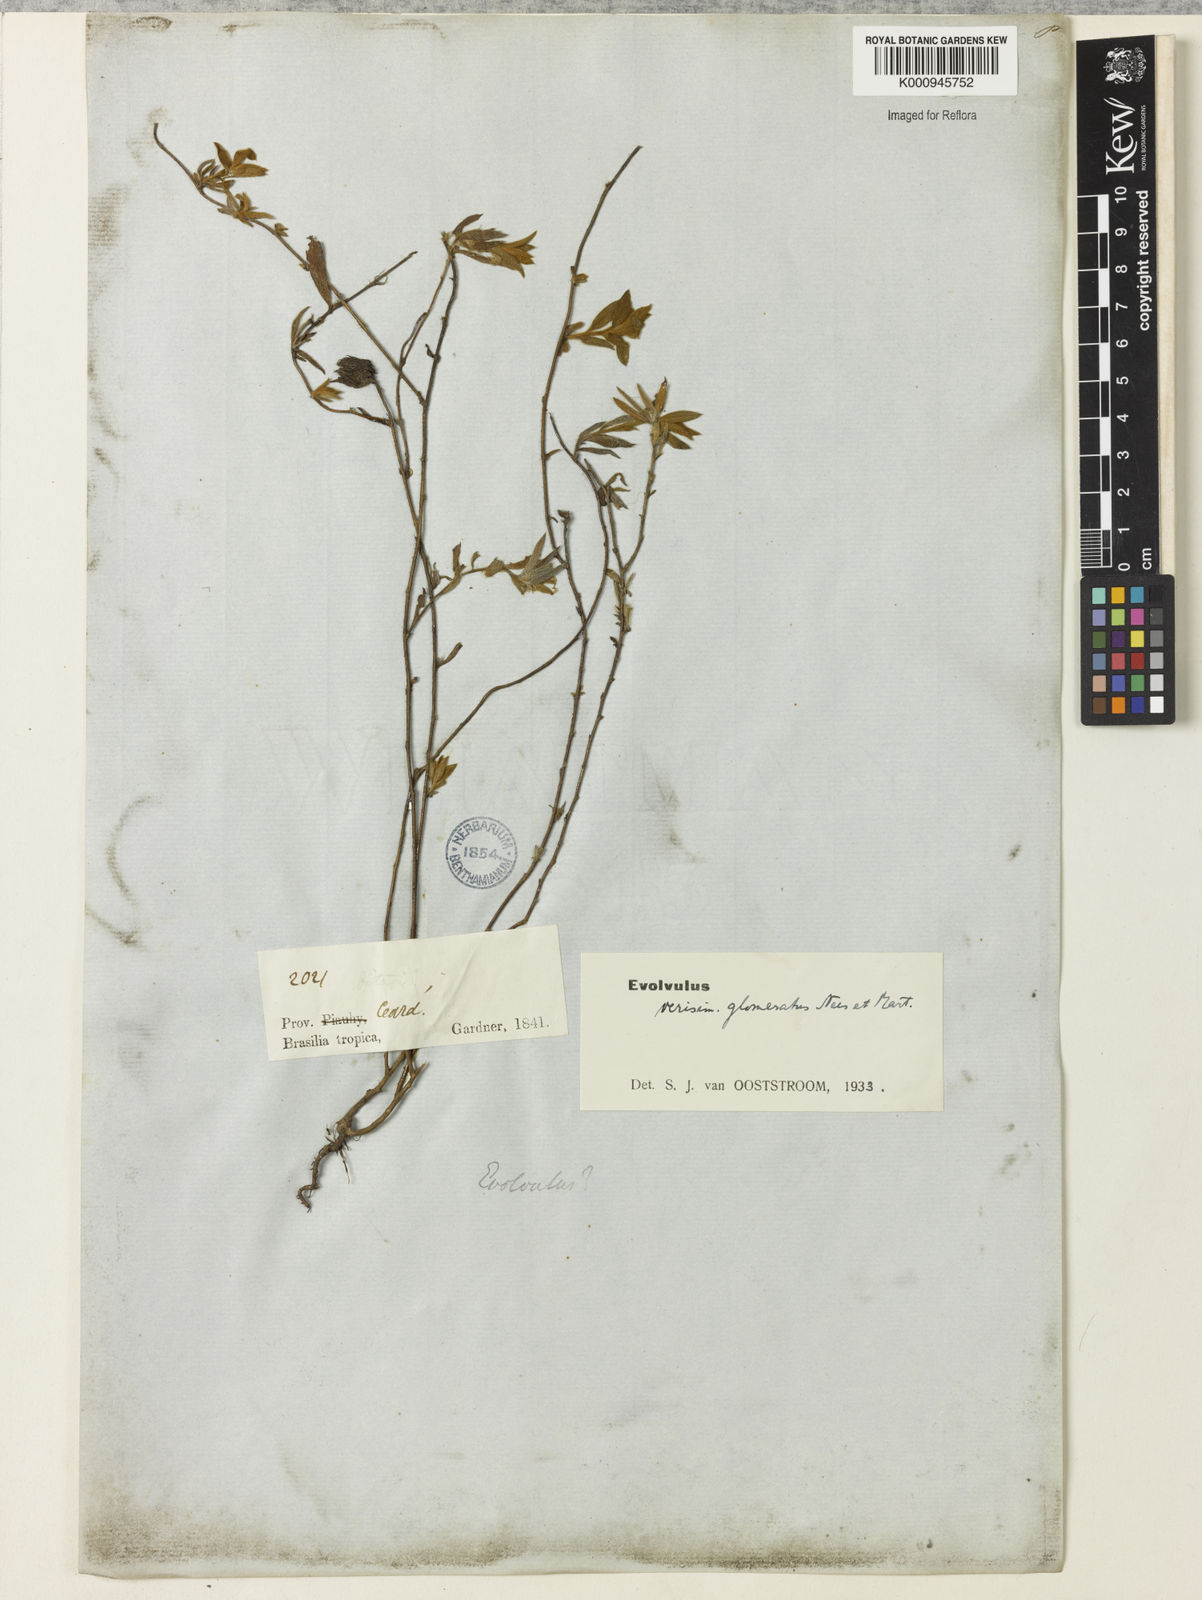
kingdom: Plantae
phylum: Tracheophyta
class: Magnoliopsida
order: Solanales
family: Convolvulaceae
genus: Evolvulus
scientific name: Evolvulus glomeratus
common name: Brazilian dwarf morning-glory
